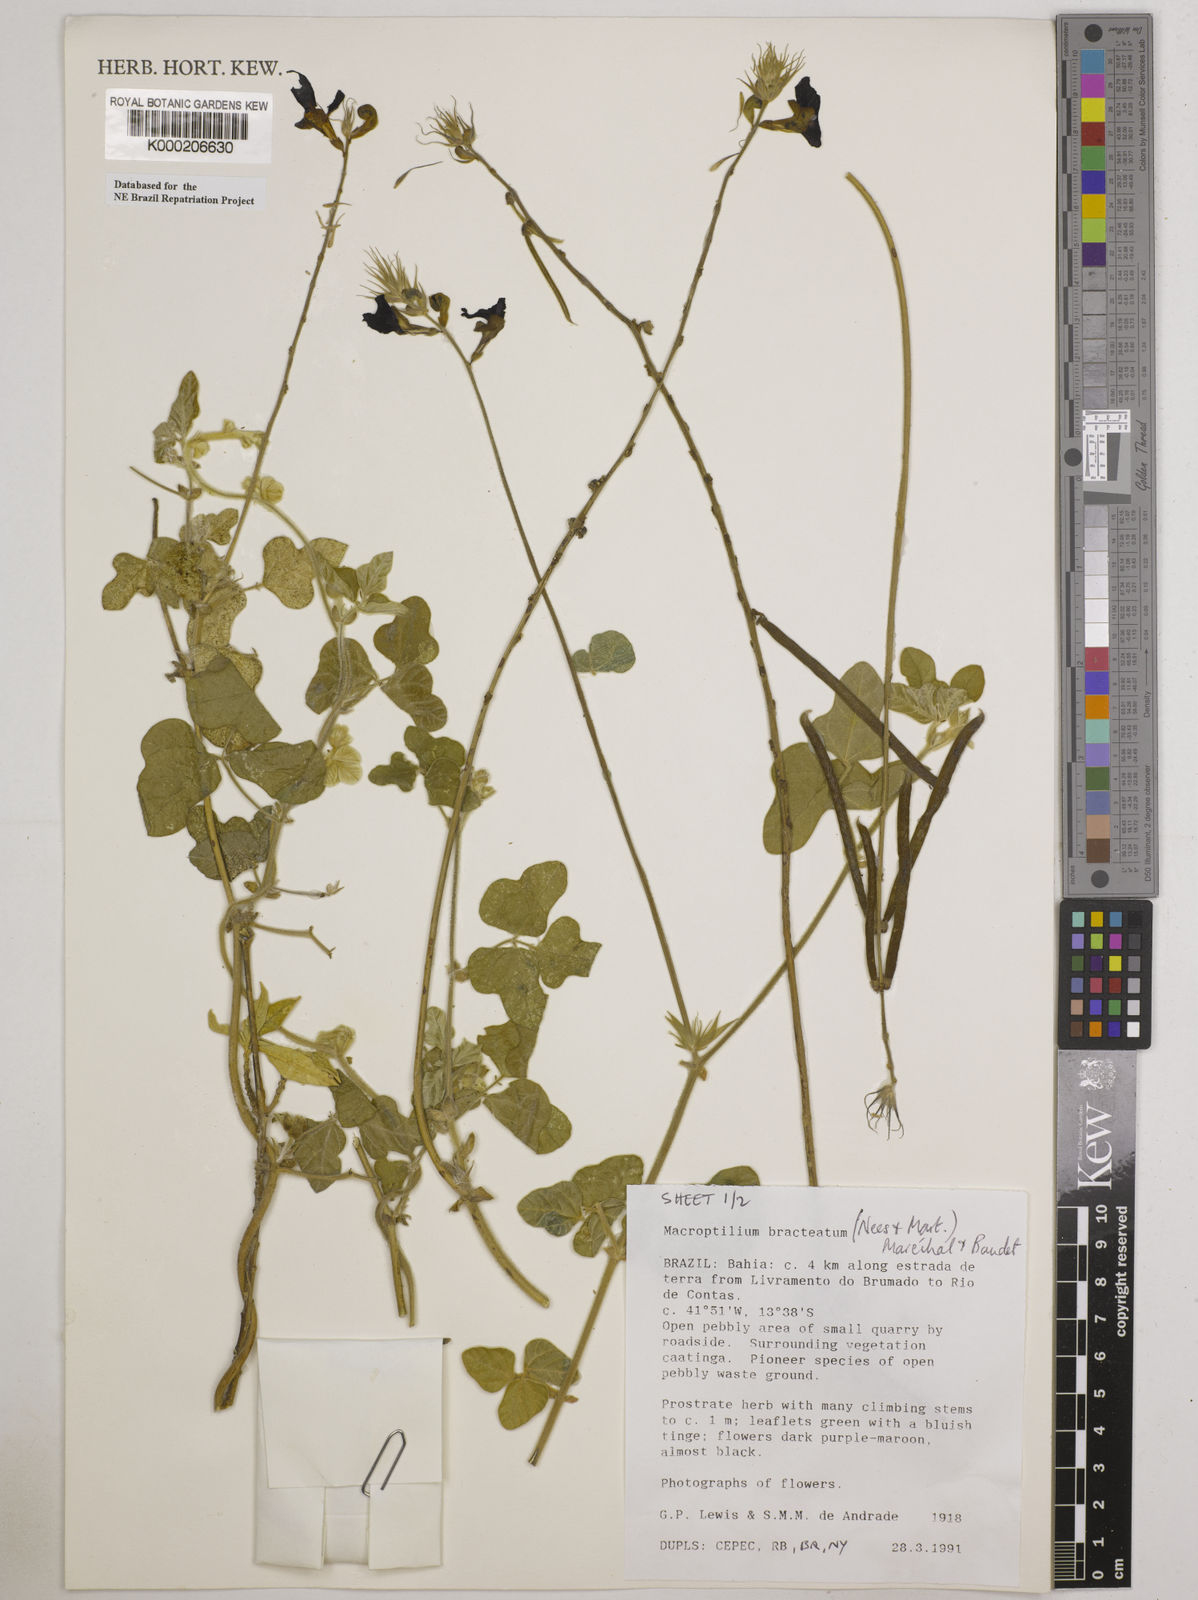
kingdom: Plantae
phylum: Tracheophyta
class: Magnoliopsida
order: Fabales
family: Fabaceae
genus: Macroptilium
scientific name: Macroptilium
